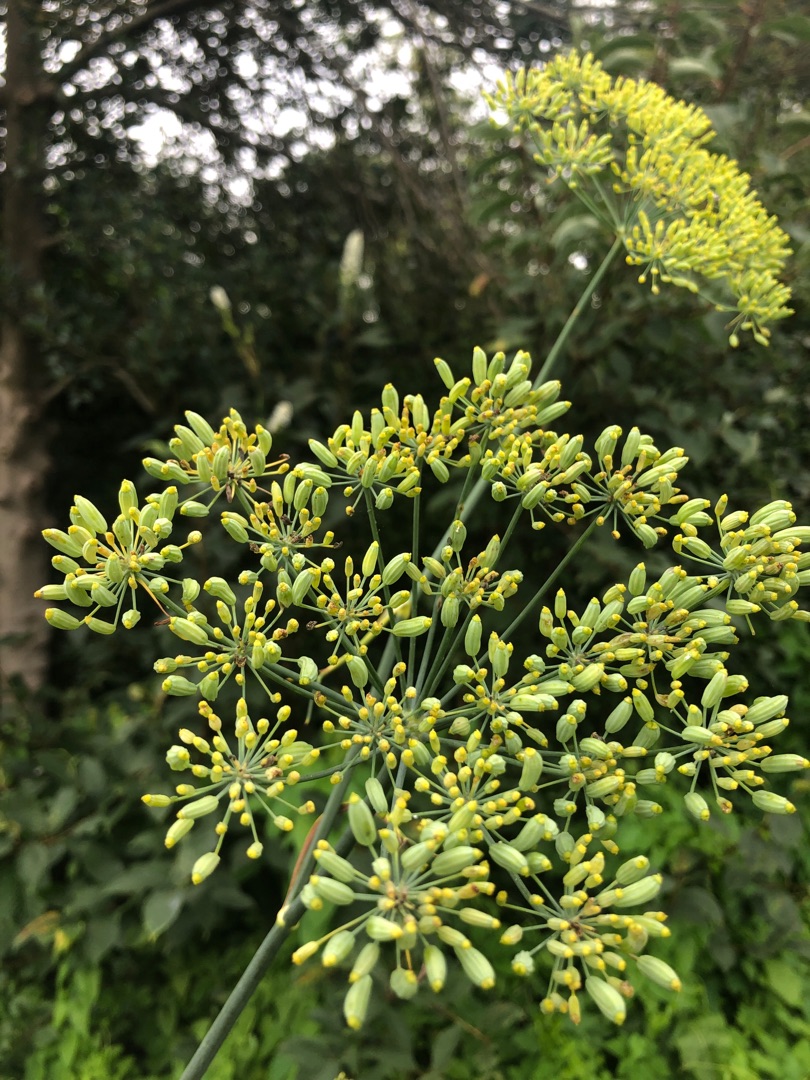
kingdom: Plantae
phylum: Tracheophyta
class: Magnoliopsida
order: Apiales
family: Apiaceae
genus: Foeniculum
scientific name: Foeniculum vulgare
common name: Fennikel
